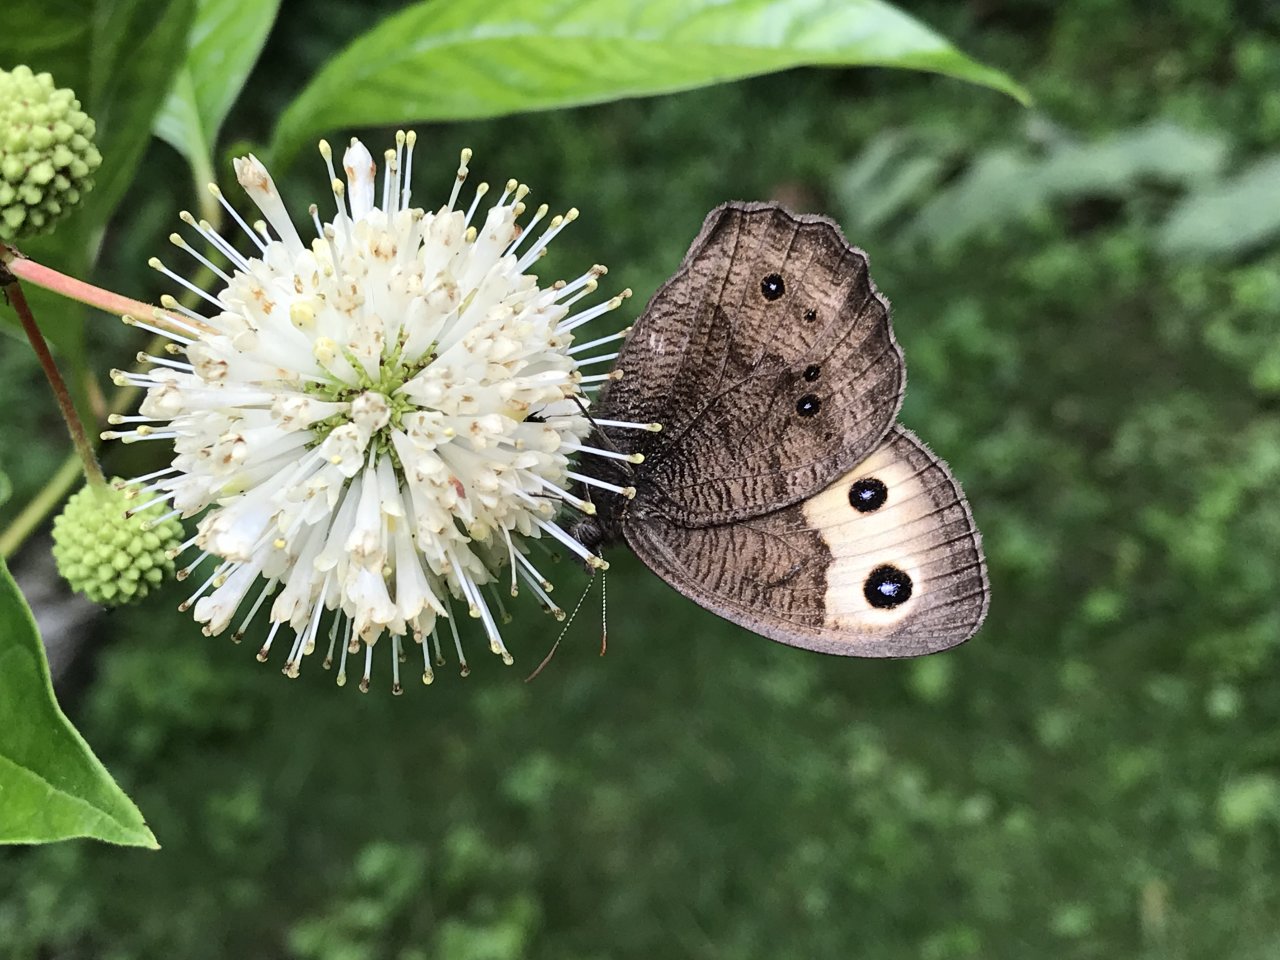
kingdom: Animalia
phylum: Arthropoda
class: Insecta
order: Lepidoptera
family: Nymphalidae
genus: Cercyonis
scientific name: Cercyonis pegala
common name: Common Wood-Nymph
